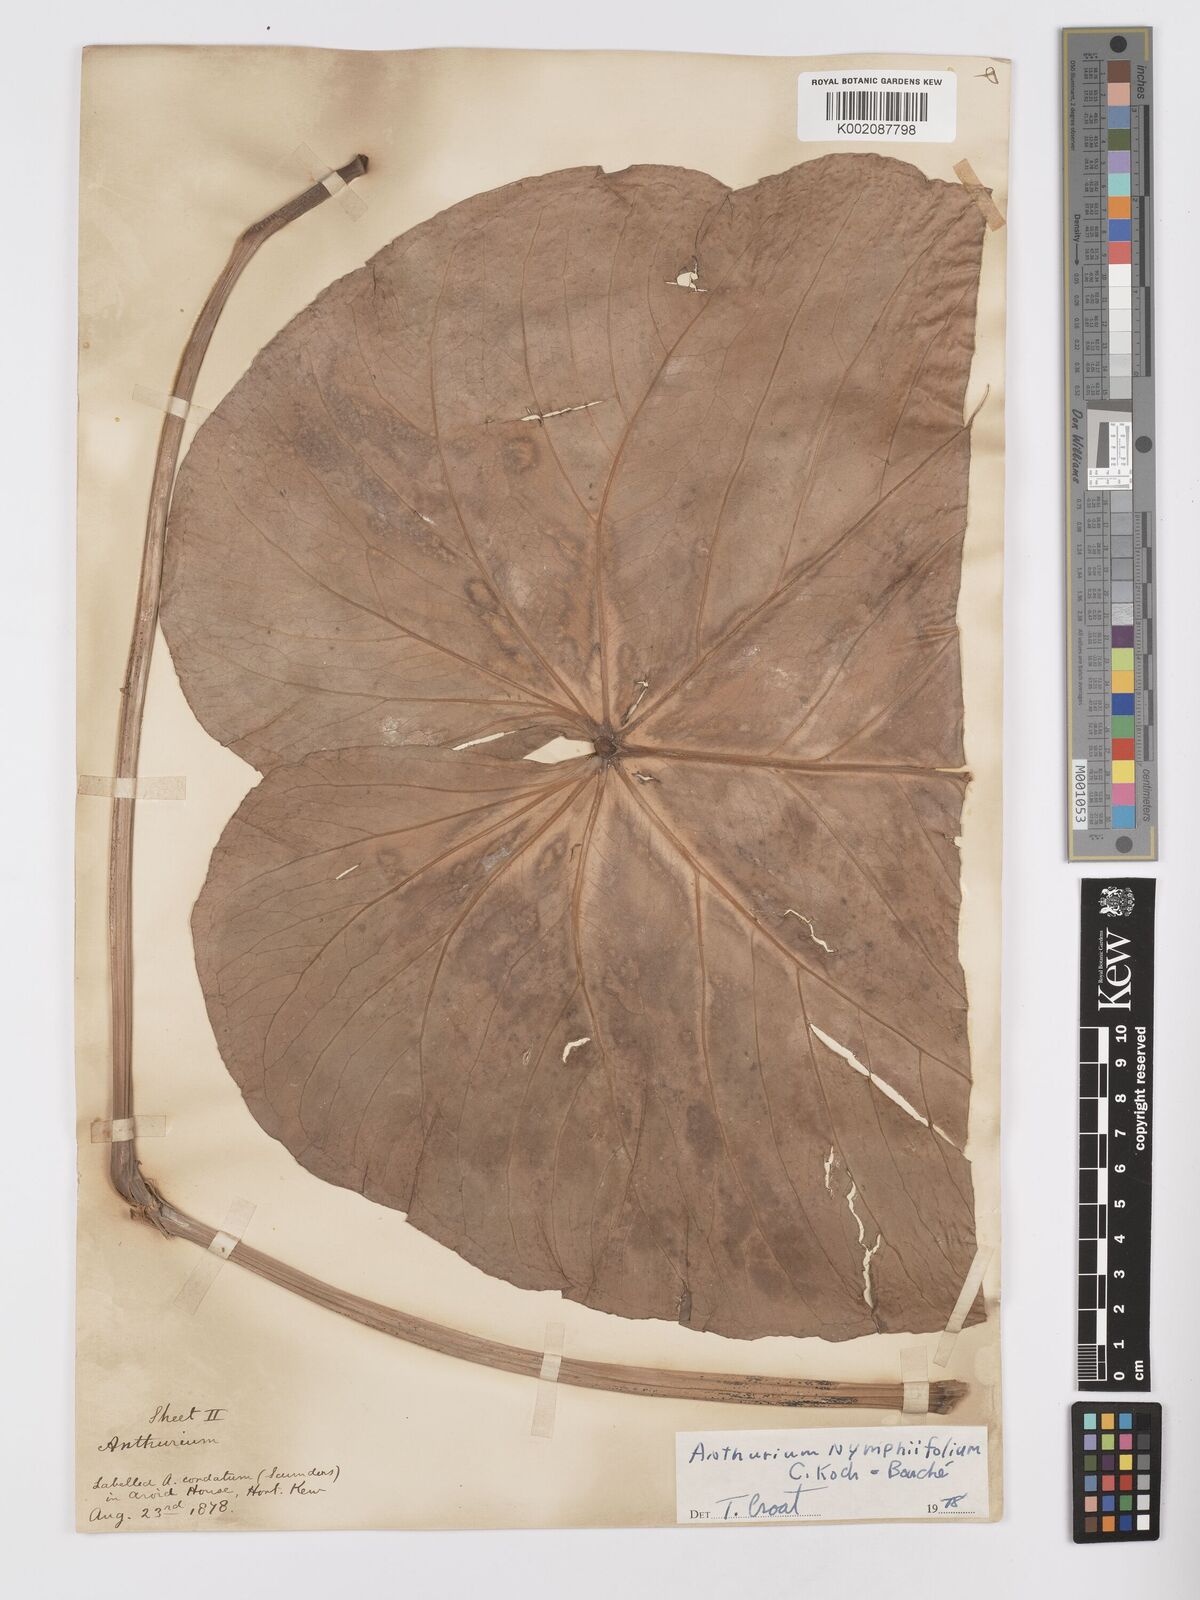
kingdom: Plantae
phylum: Tracheophyta
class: Liliopsida
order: Alismatales
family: Araceae
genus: Anthurium
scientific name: Anthurium nymphaeifolium
